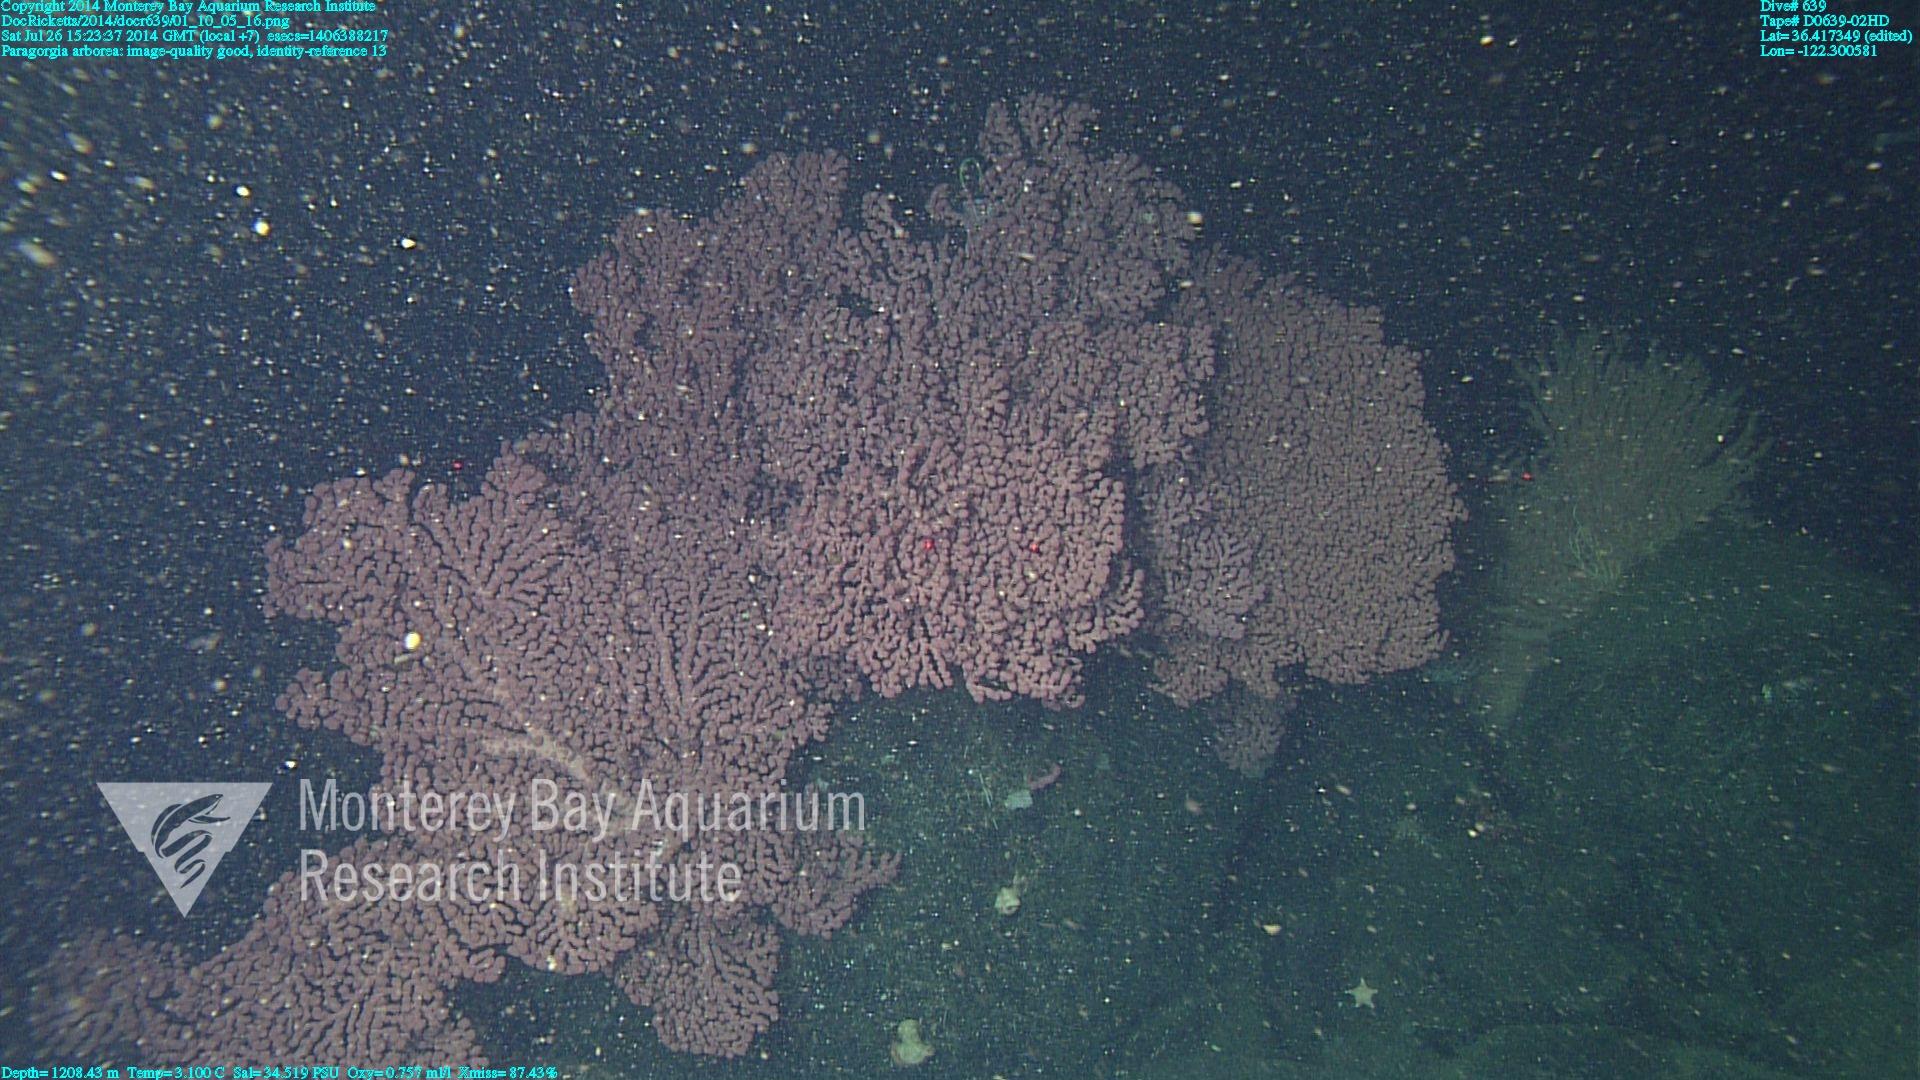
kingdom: Animalia
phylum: Cnidaria
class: Anthozoa
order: Scleralcyonacea
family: Coralliidae
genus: Paragorgia
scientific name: Paragorgia arborea
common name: Bubble gum coral
